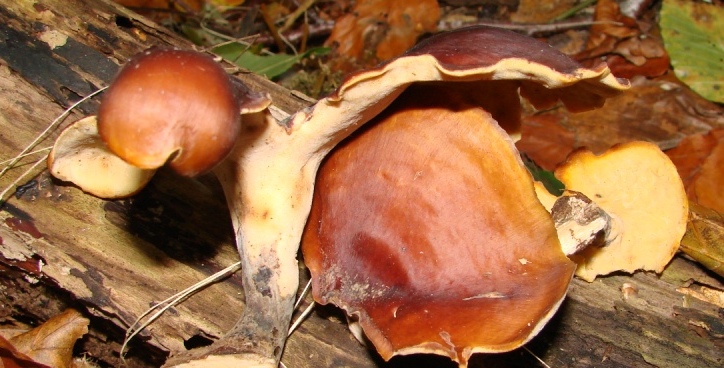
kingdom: Fungi
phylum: Basidiomycota
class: Agaricomycetes
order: Polyporales
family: Polyporaceae
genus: Picipes
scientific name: Picipes badius
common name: kastaniebrun stilkporesvamp
